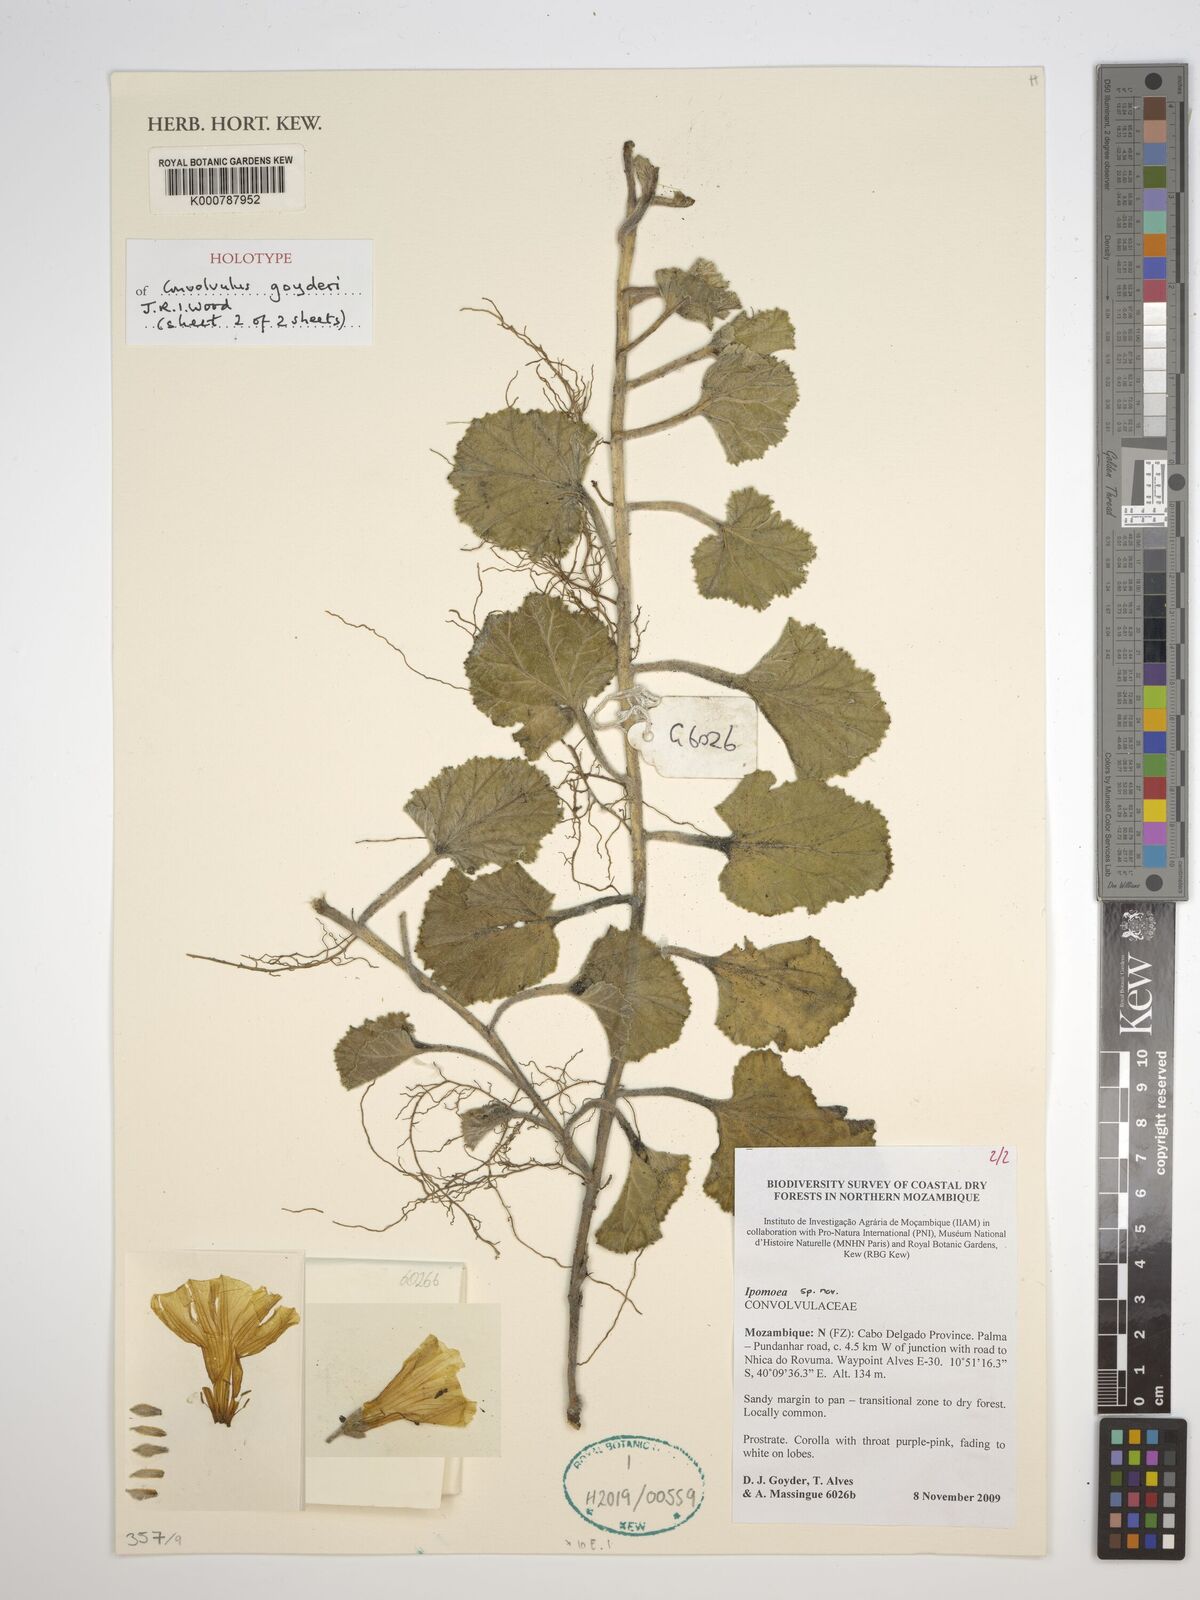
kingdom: Plantae
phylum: Tracheophyta
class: Magnoliopsida
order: Solanales
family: Convolvulaceae
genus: Convolvulus
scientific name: Convolvulus
